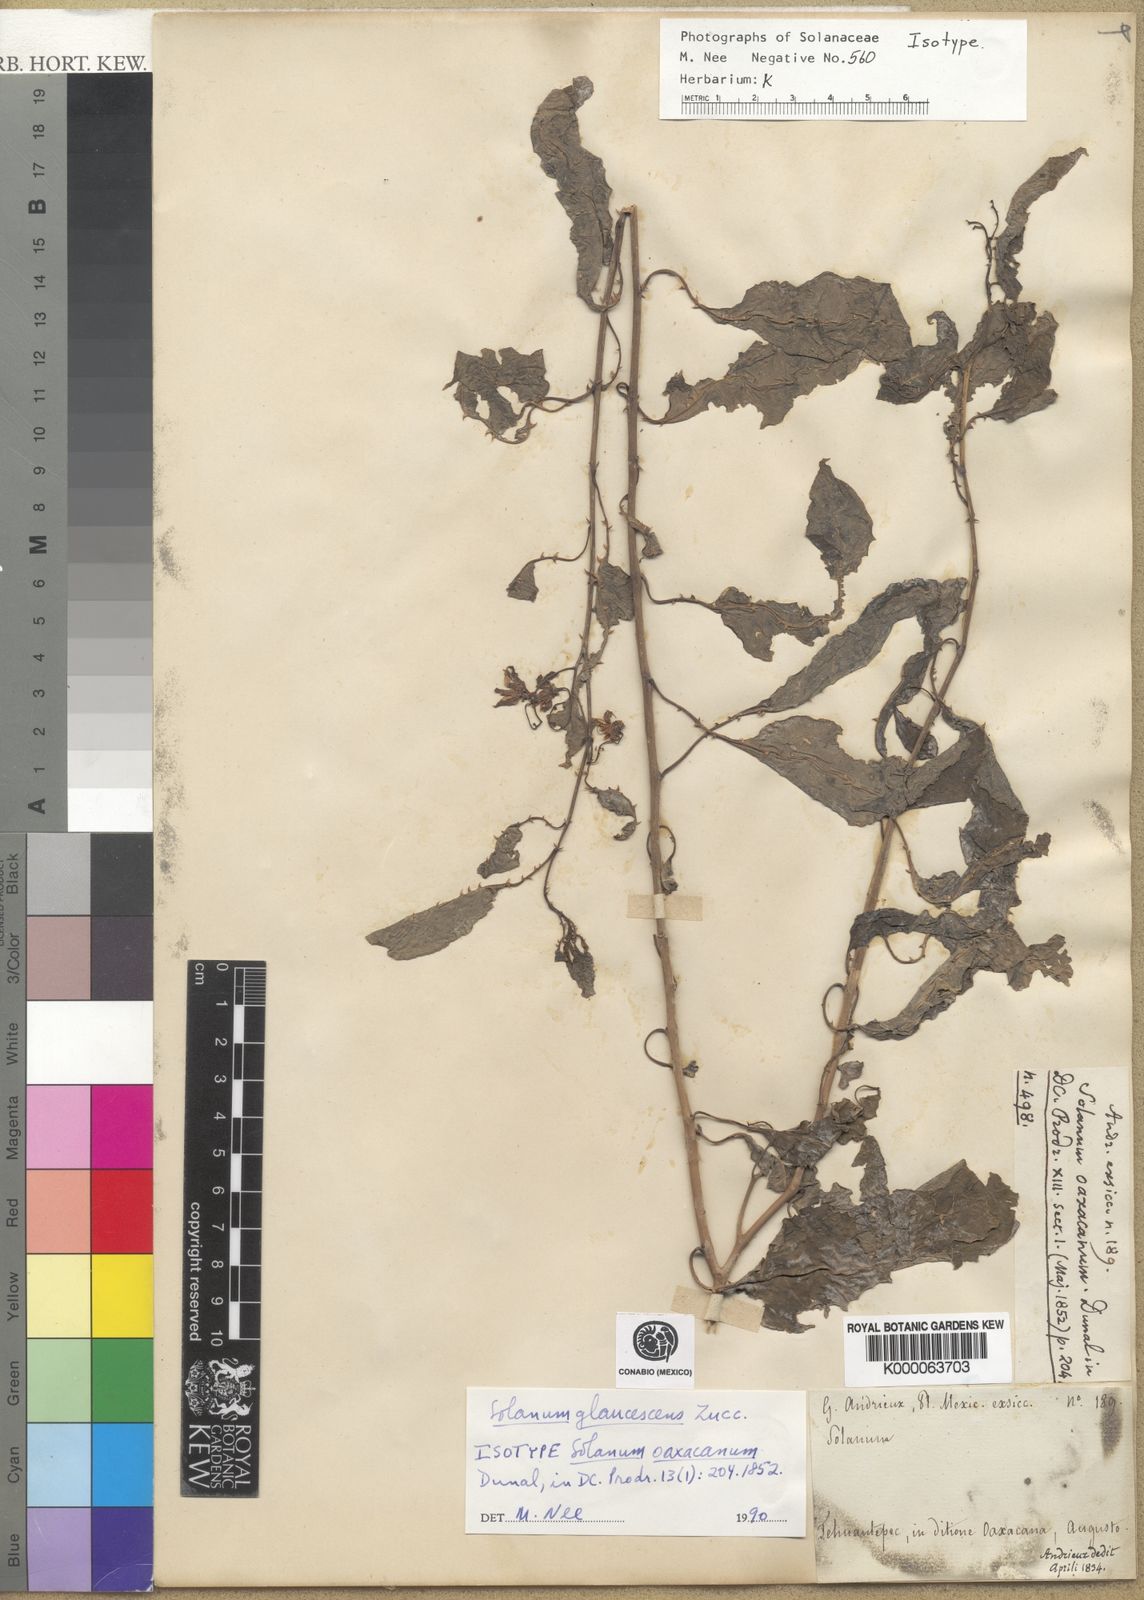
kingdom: Plantae
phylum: Tracheophyta
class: Magnoliopsida
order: Solanales
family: Solanaceae
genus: Solanum
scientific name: Solanum glaucescens
